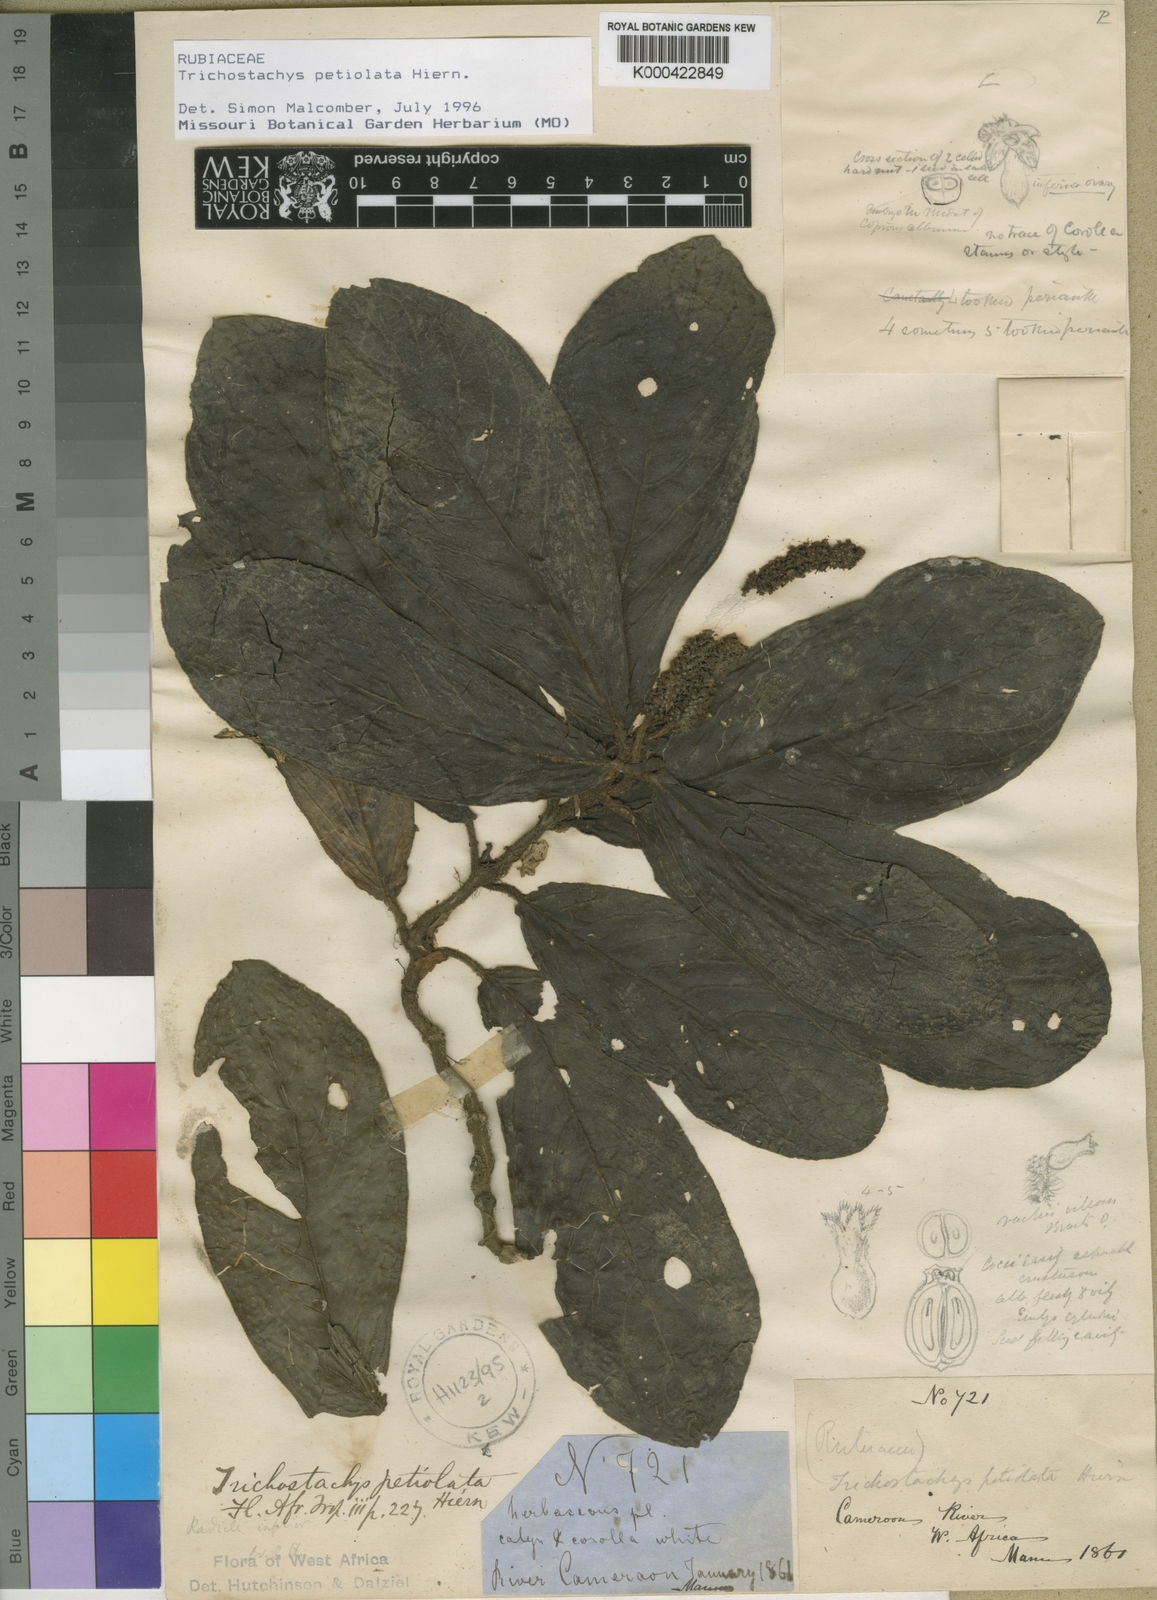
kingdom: Plantae
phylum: Tracheophyta
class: Magnoliopsida
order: Gentianales
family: Rubiaceae
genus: Trichostachys
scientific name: Trichostachys petiolata
